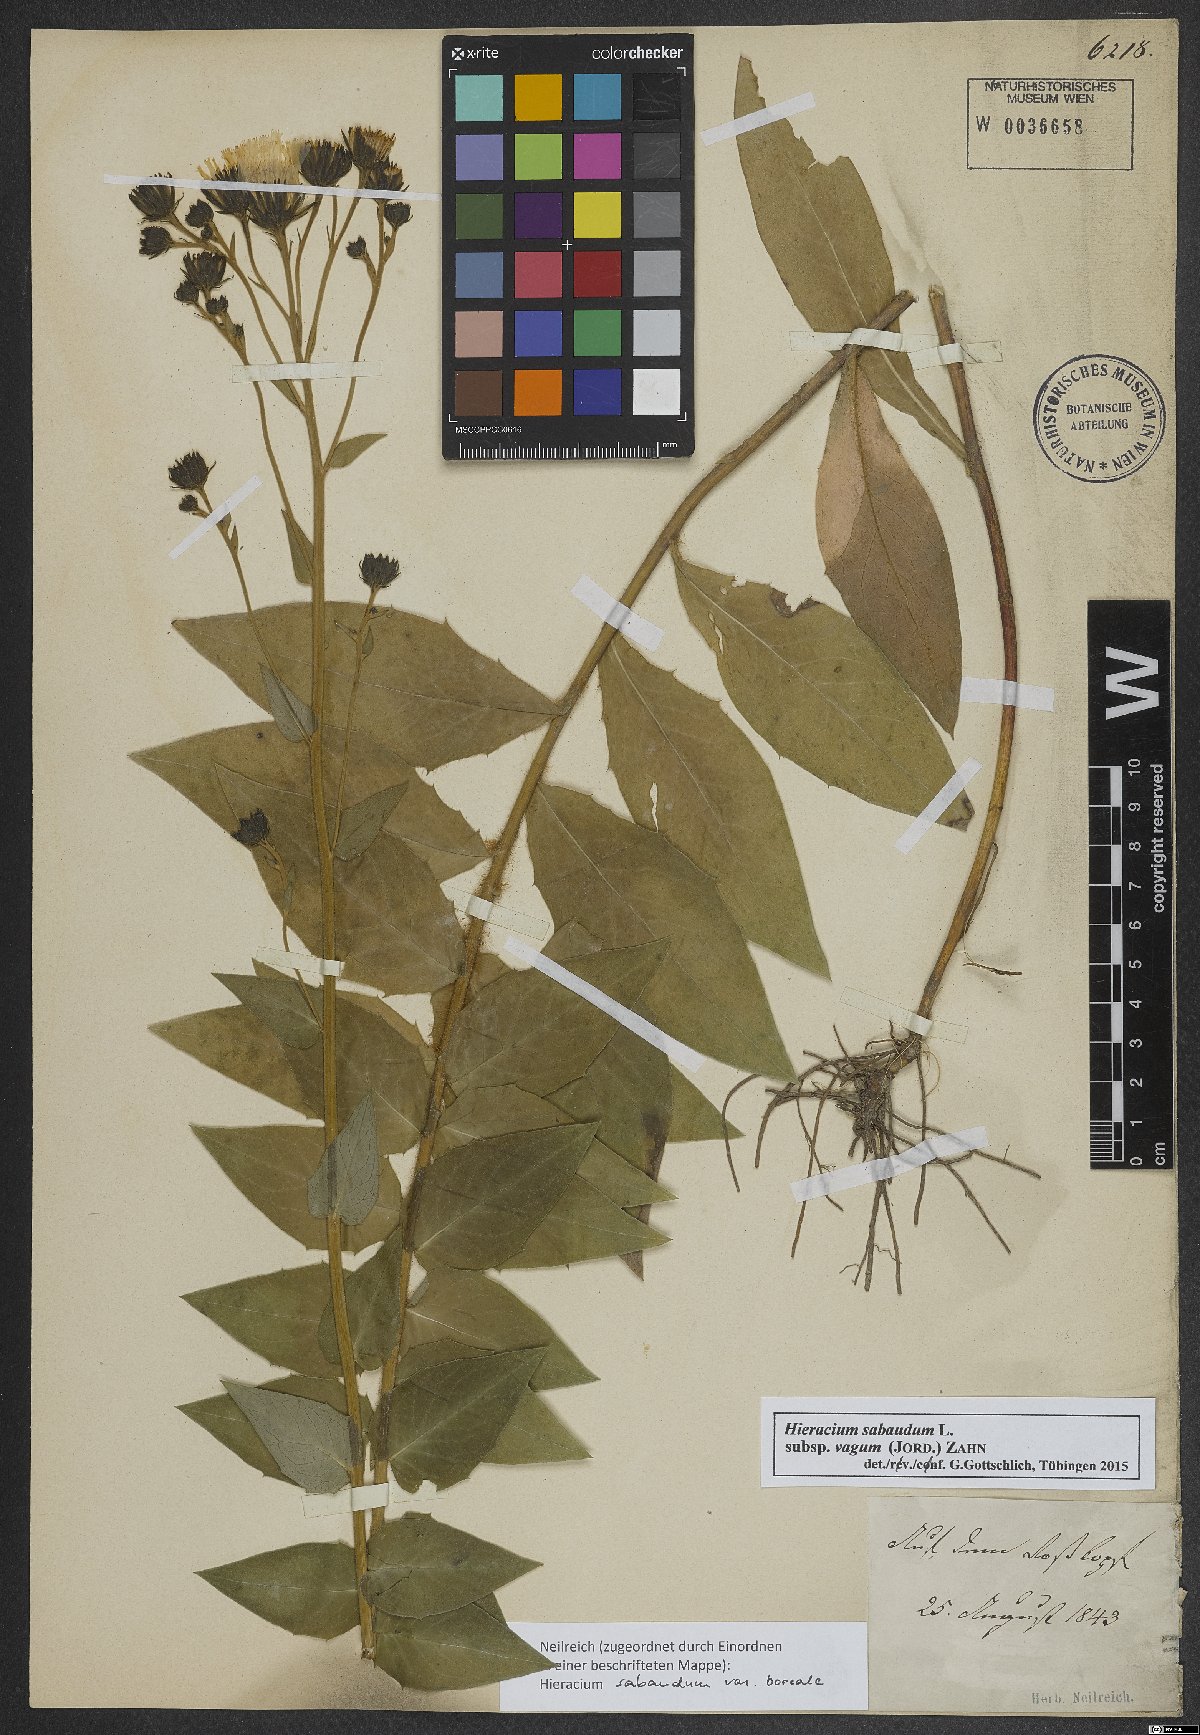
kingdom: Plantae
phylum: Tracheophyta
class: Magnoliopsida
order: Asterales
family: Asteraceae
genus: Hieracium
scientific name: Hieracium sabaudum
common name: New england hawkweed
